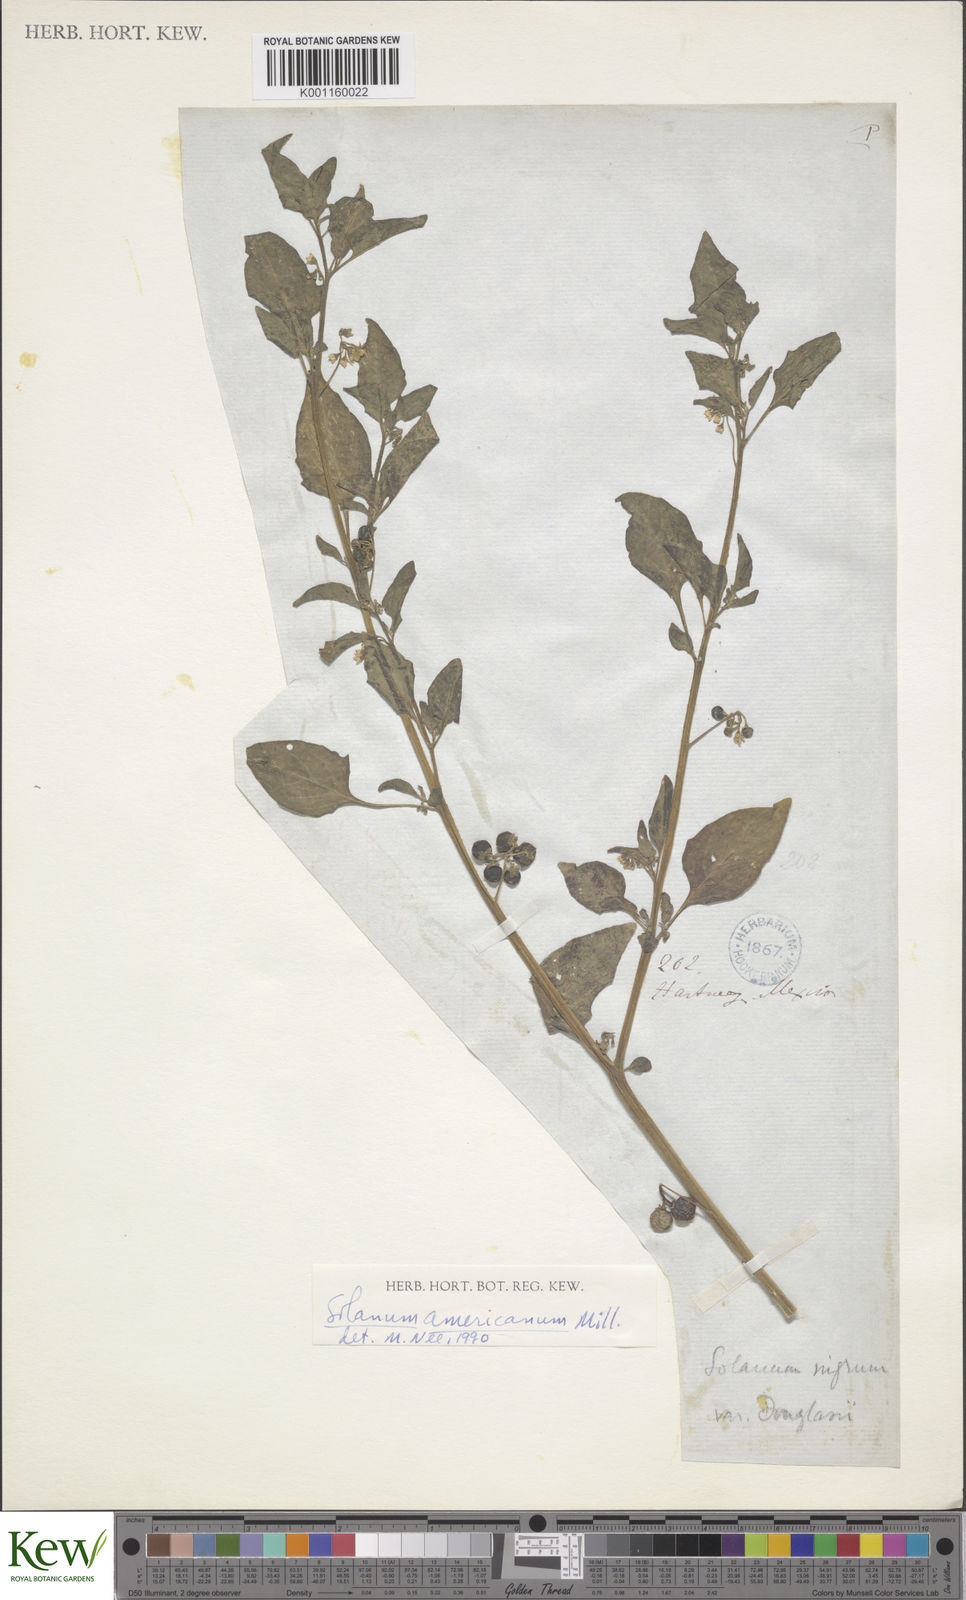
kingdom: Plantae
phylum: Tracheophyta
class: Magnoliopsida
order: Solanales
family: Solanaceae
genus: Solanum
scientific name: Solanum americanum
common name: American black nightshade
